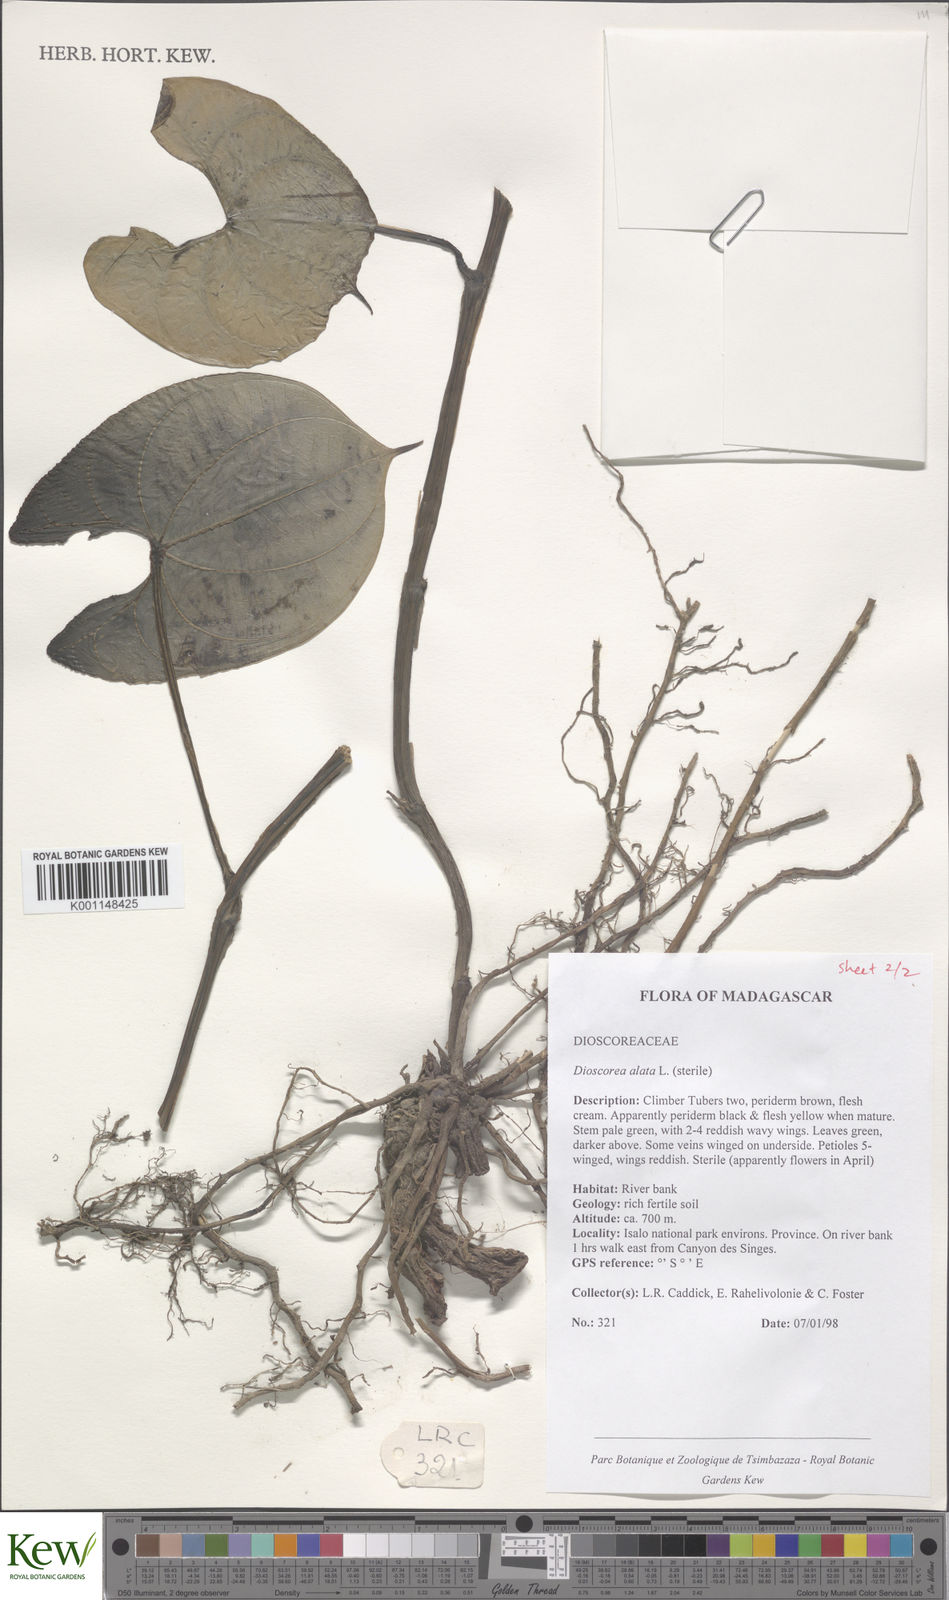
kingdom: Plantae
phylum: Tracheophyta
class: Liliopsida
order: Dioscoreales
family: Dioscoreaceae
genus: Dioscorea
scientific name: Dioscorea alata
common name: Water yam
